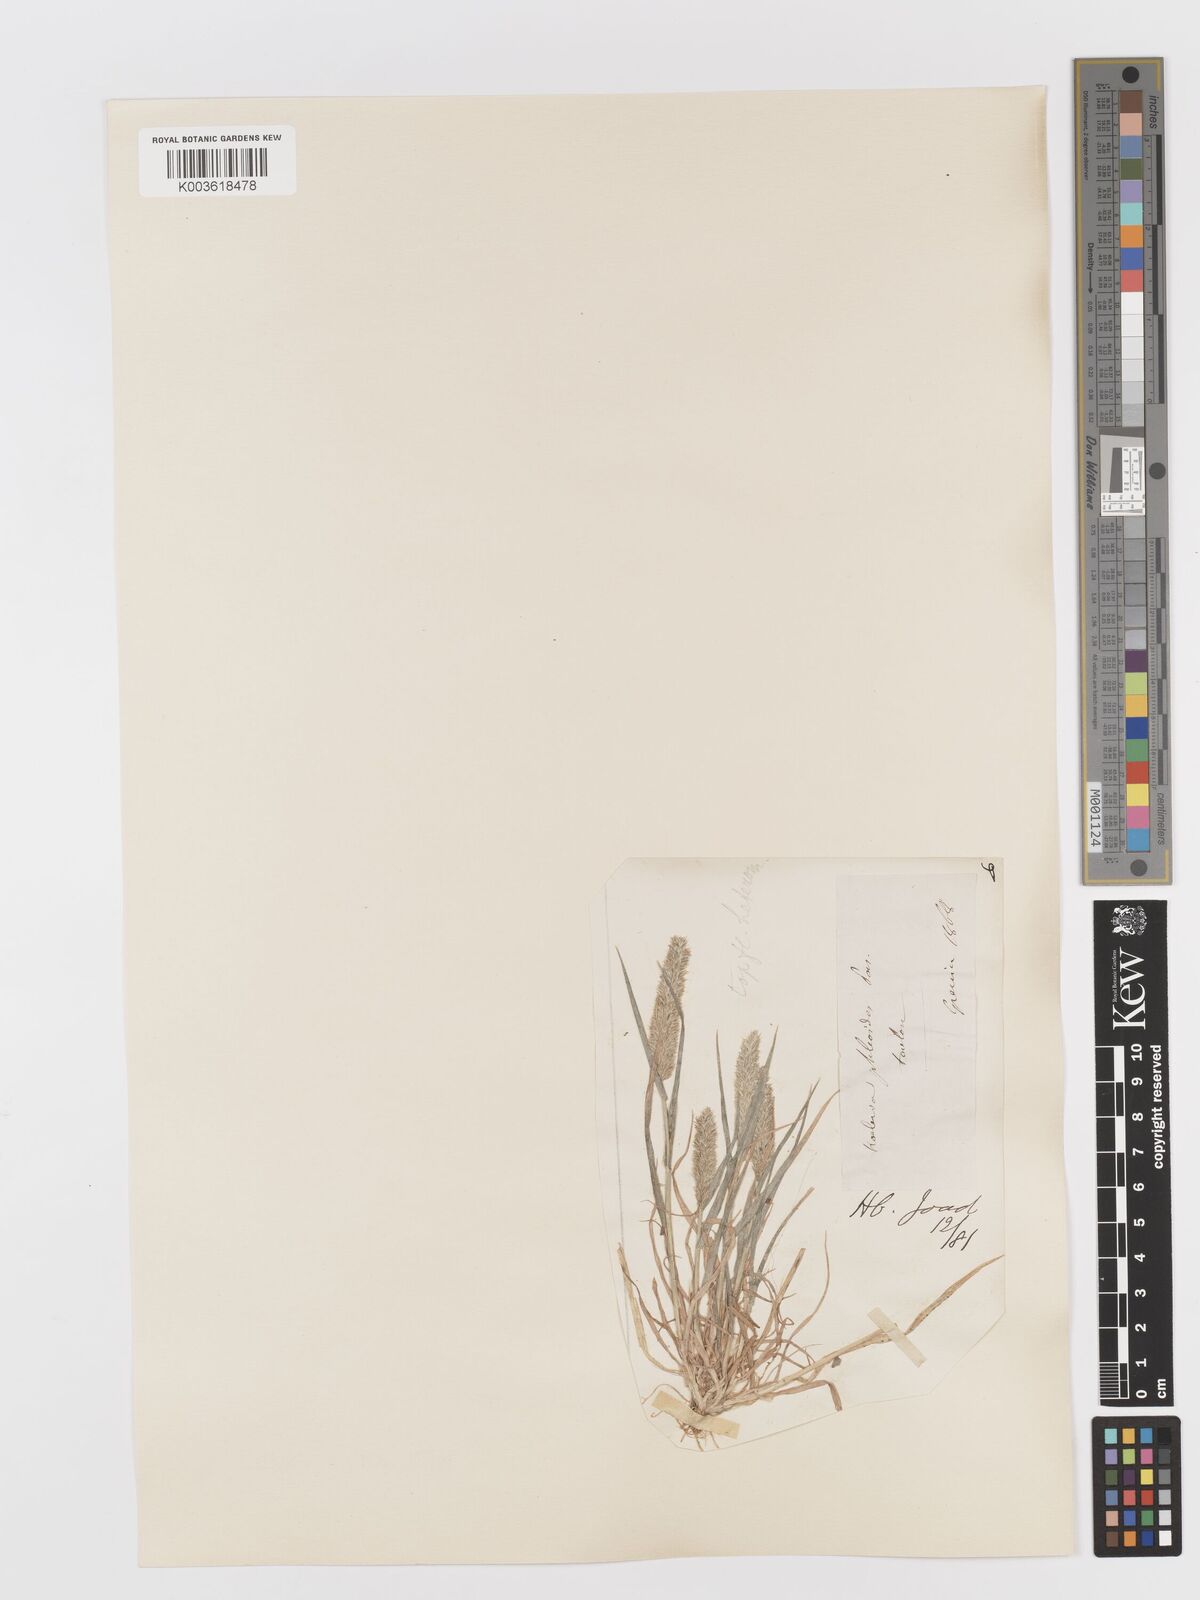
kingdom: Plantae
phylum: Tracheophyta
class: Liliopsida
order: Poales
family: Poaceae
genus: Rostraria
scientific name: Rostraria cristata
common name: Mediterranean hair-grass
